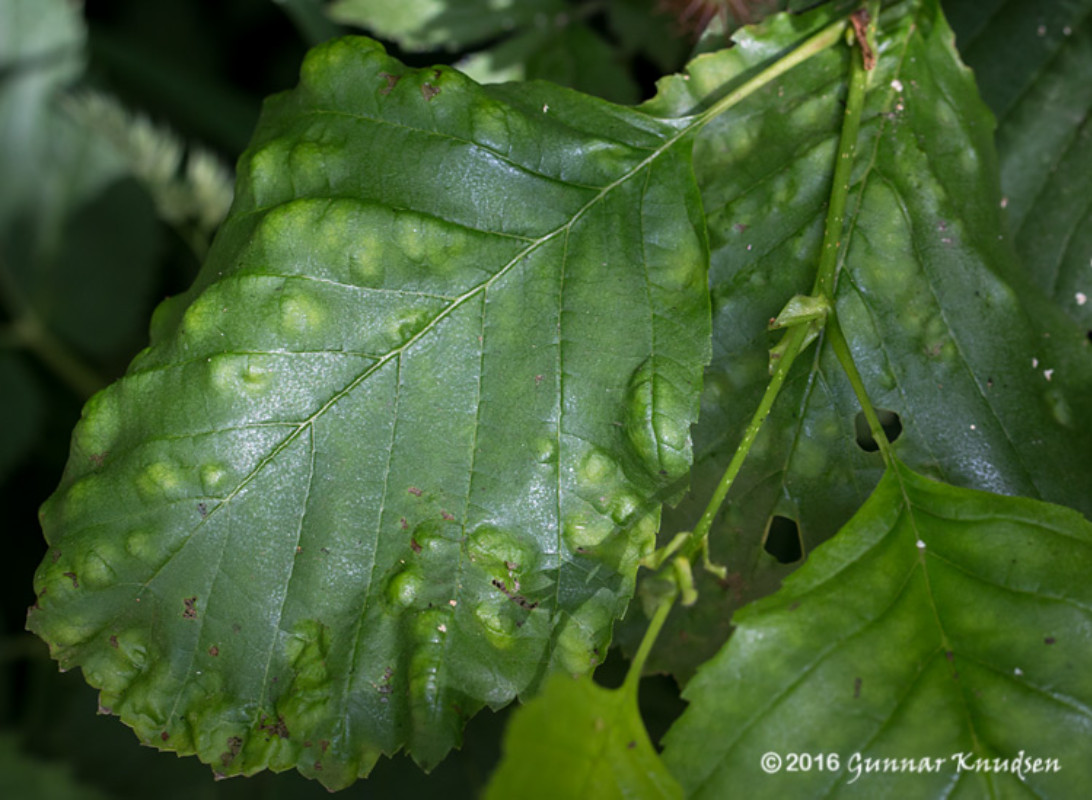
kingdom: Fungi
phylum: Ascomycota
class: Taphrinomycetes
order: Taphrinales
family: Taphrinaceae
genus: Taphrina
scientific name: Taphrina sadebeckii
